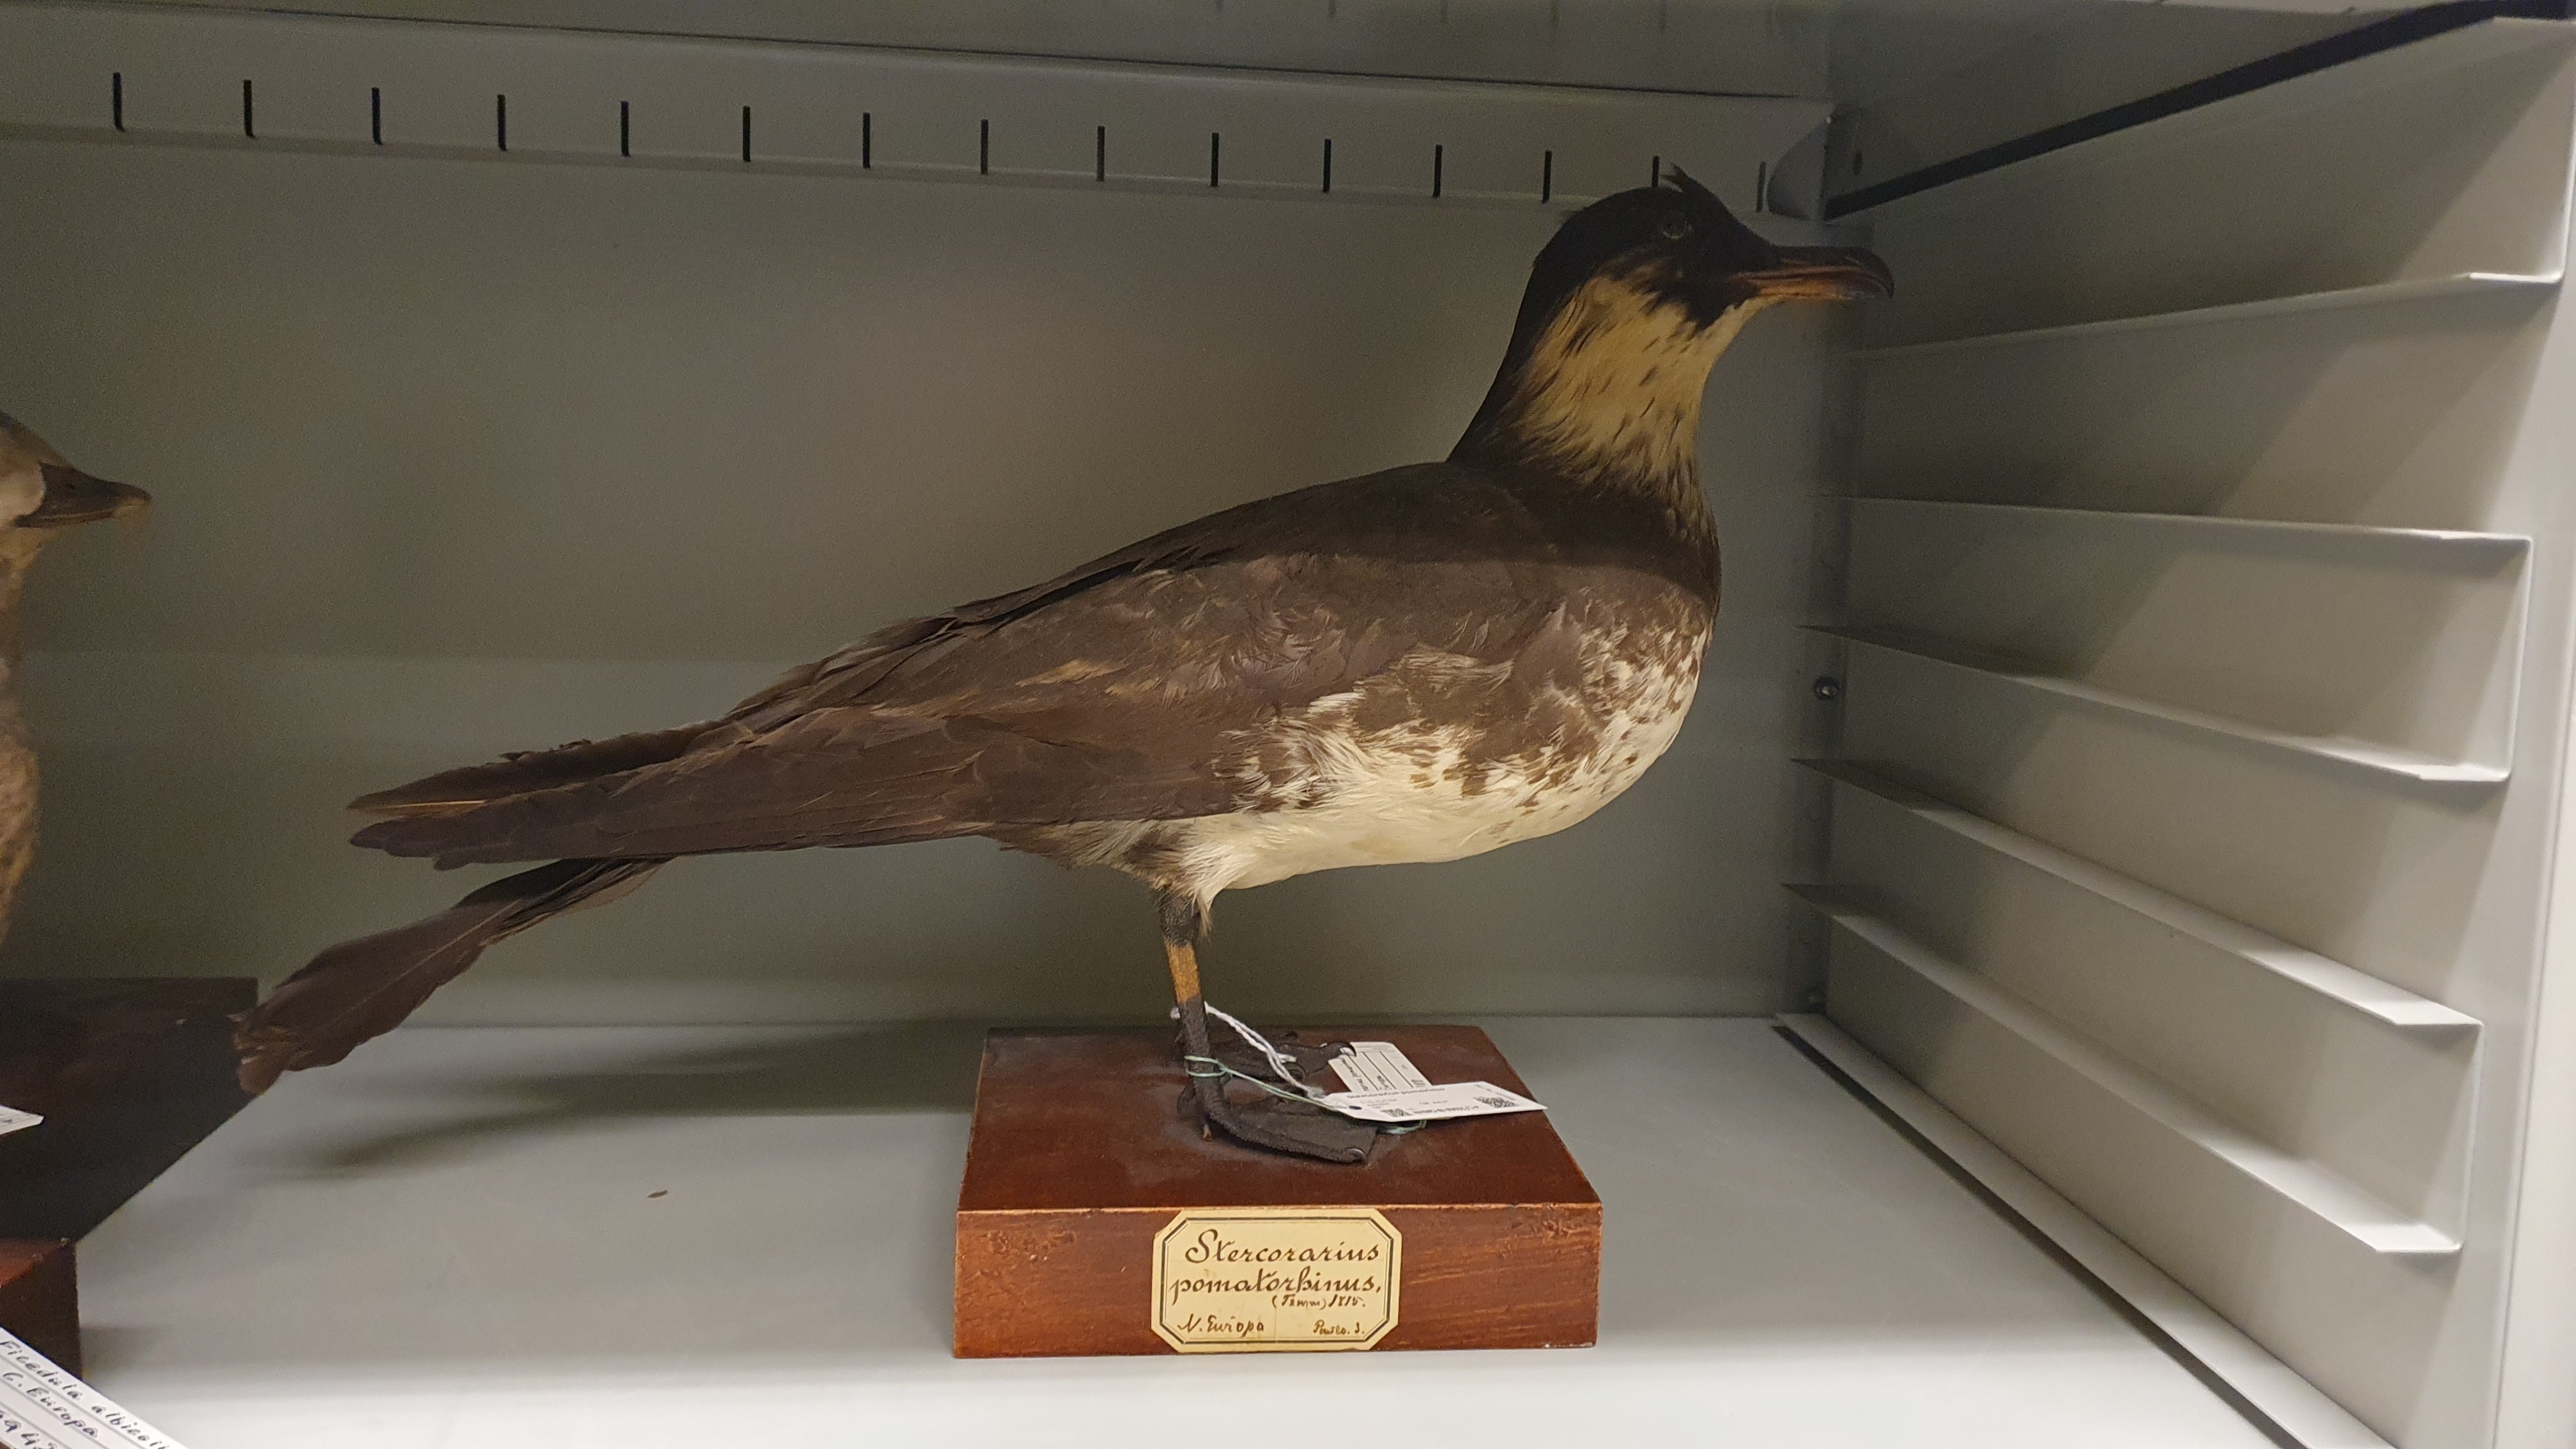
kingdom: Animalia
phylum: Chordata
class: Aves
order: Charadriiformes
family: Stercorariidae
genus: Stercorarius
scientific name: Stercorarius pomarinus
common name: Pomarine jaeger
